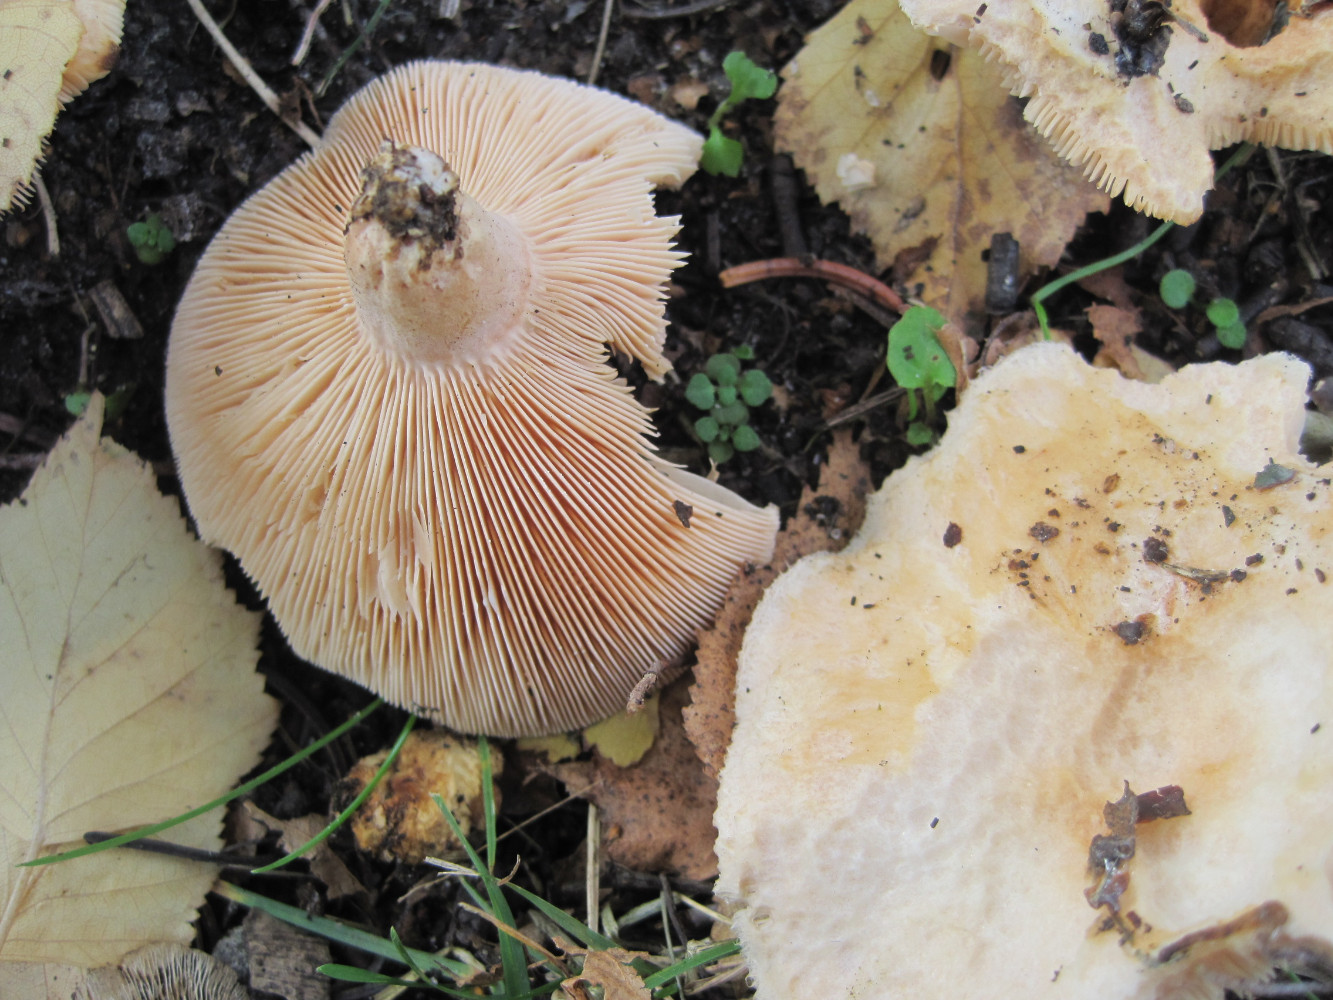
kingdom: Fungi
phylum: Basidiomycota
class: Agaricomycetes
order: Russulales
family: Russulaceae
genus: Lactarius
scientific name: Lactarius pubescens
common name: dunet mælkehat
